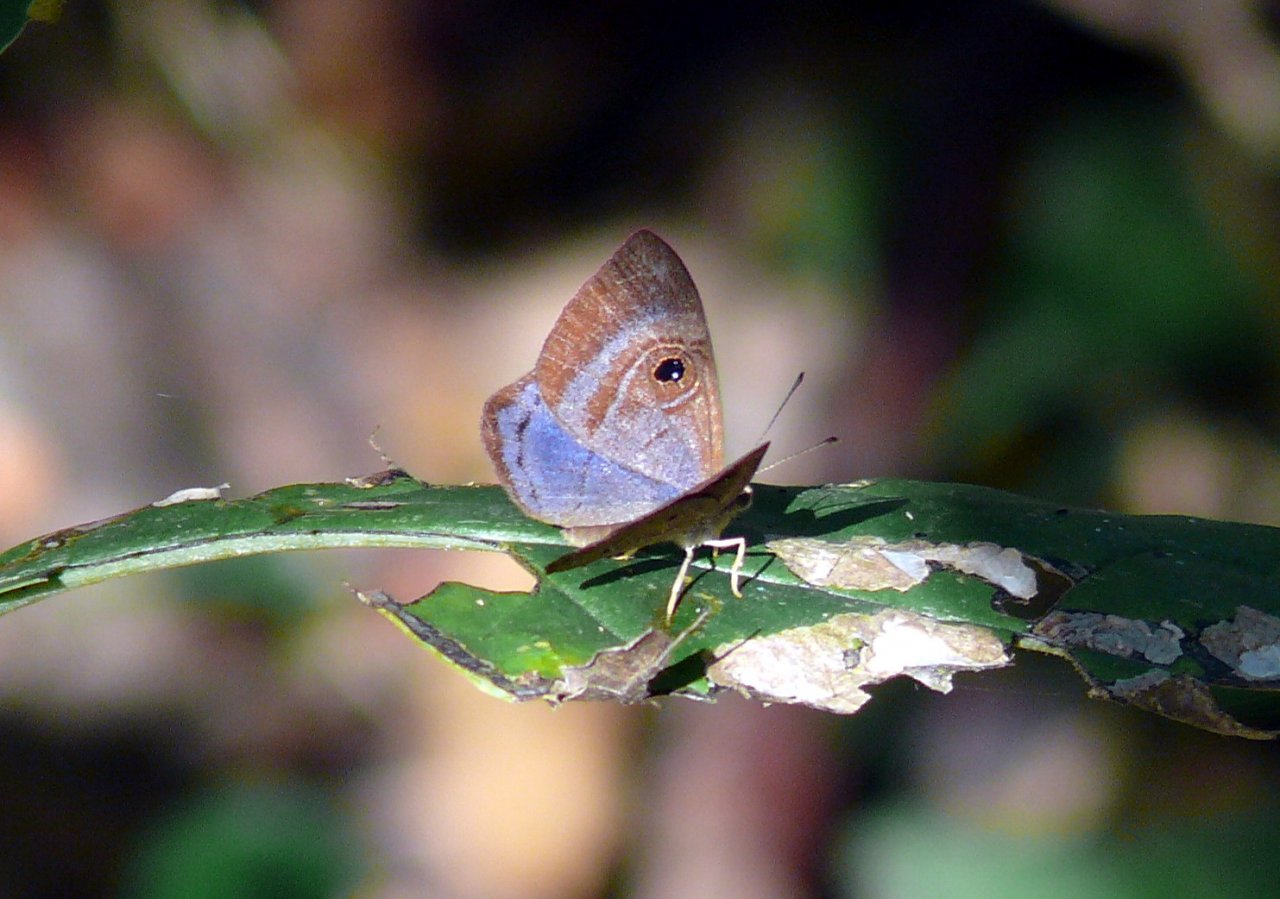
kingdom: Animalia
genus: Mesosemia
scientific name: Mesosemia lamachus
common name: Purple-washed Eyed-Metalmark
